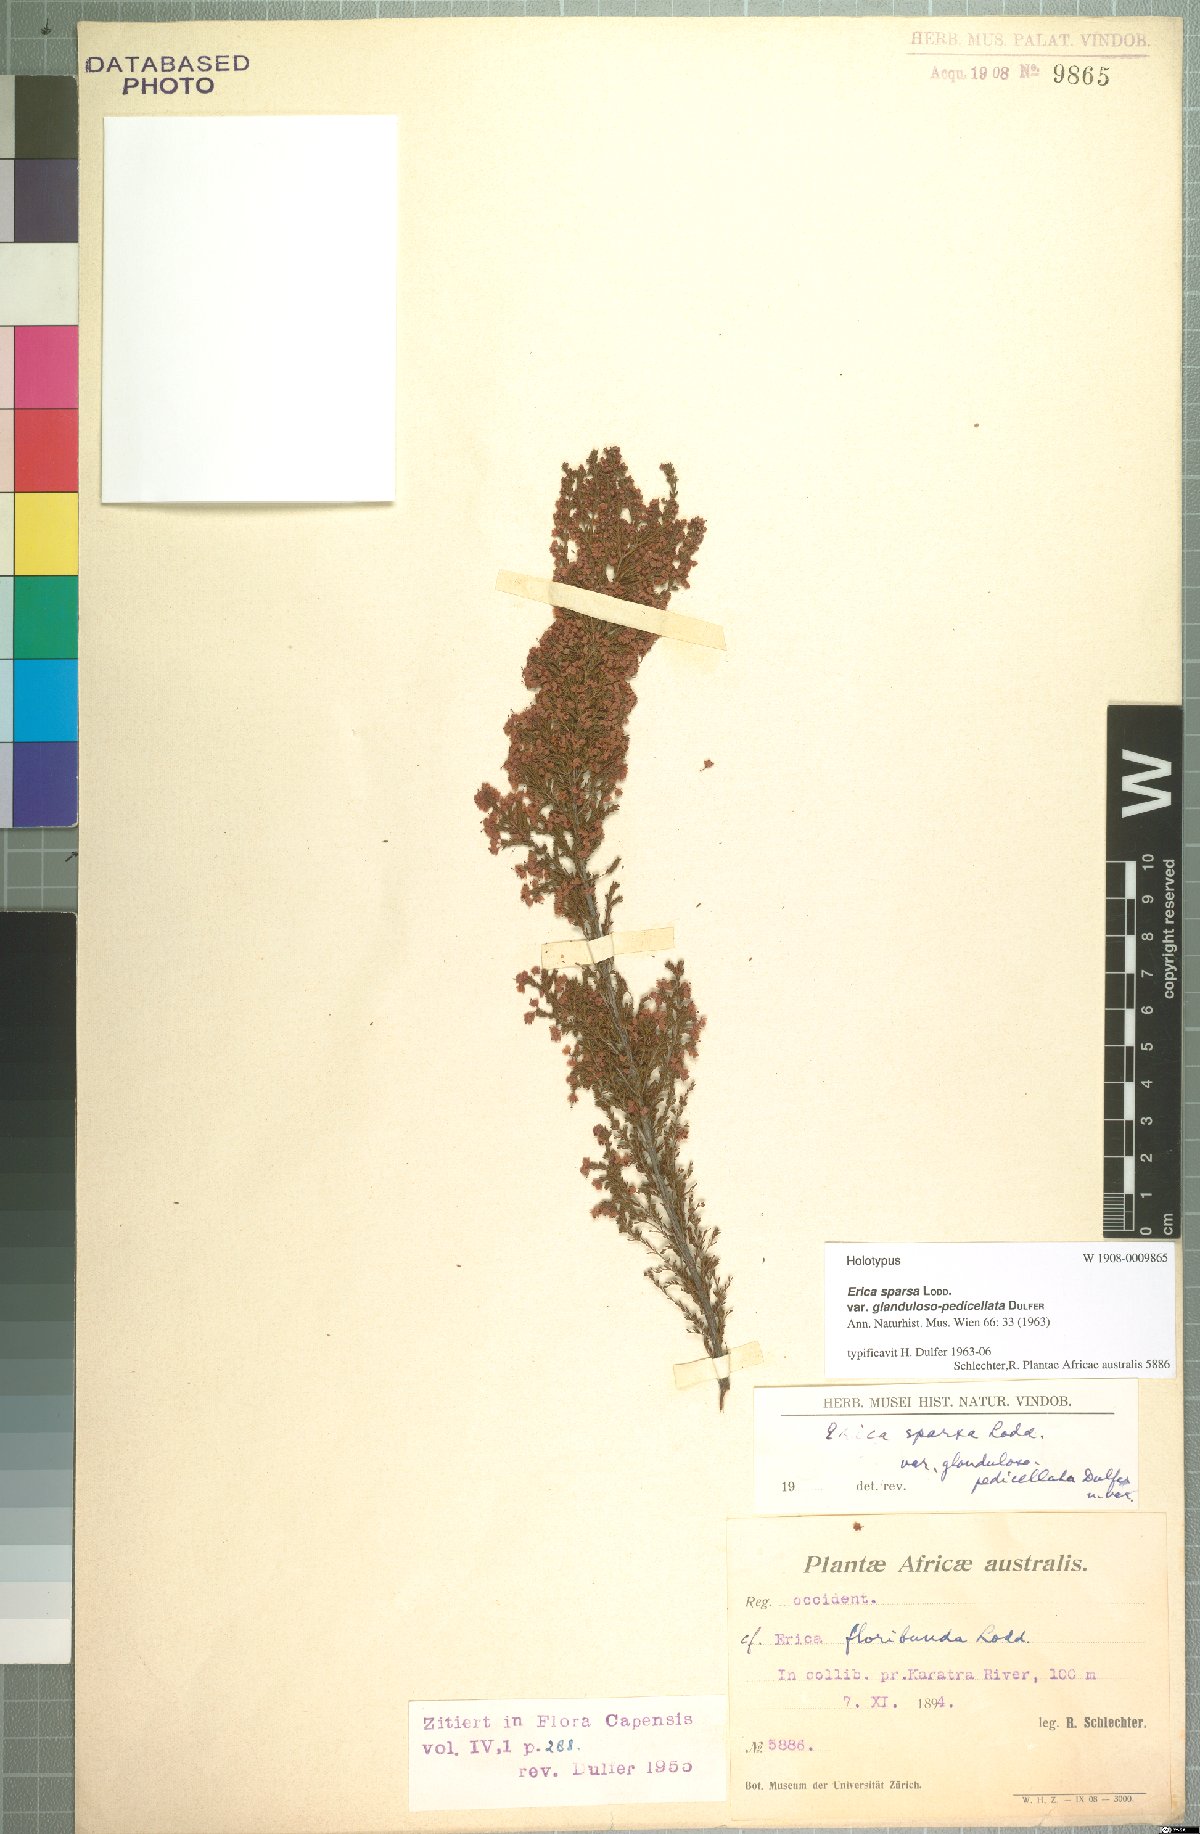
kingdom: Plantae
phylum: Tracheophyta
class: Magnoliopsida
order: Ericales
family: Ericaceae
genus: Erica
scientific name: Erica sparsa
